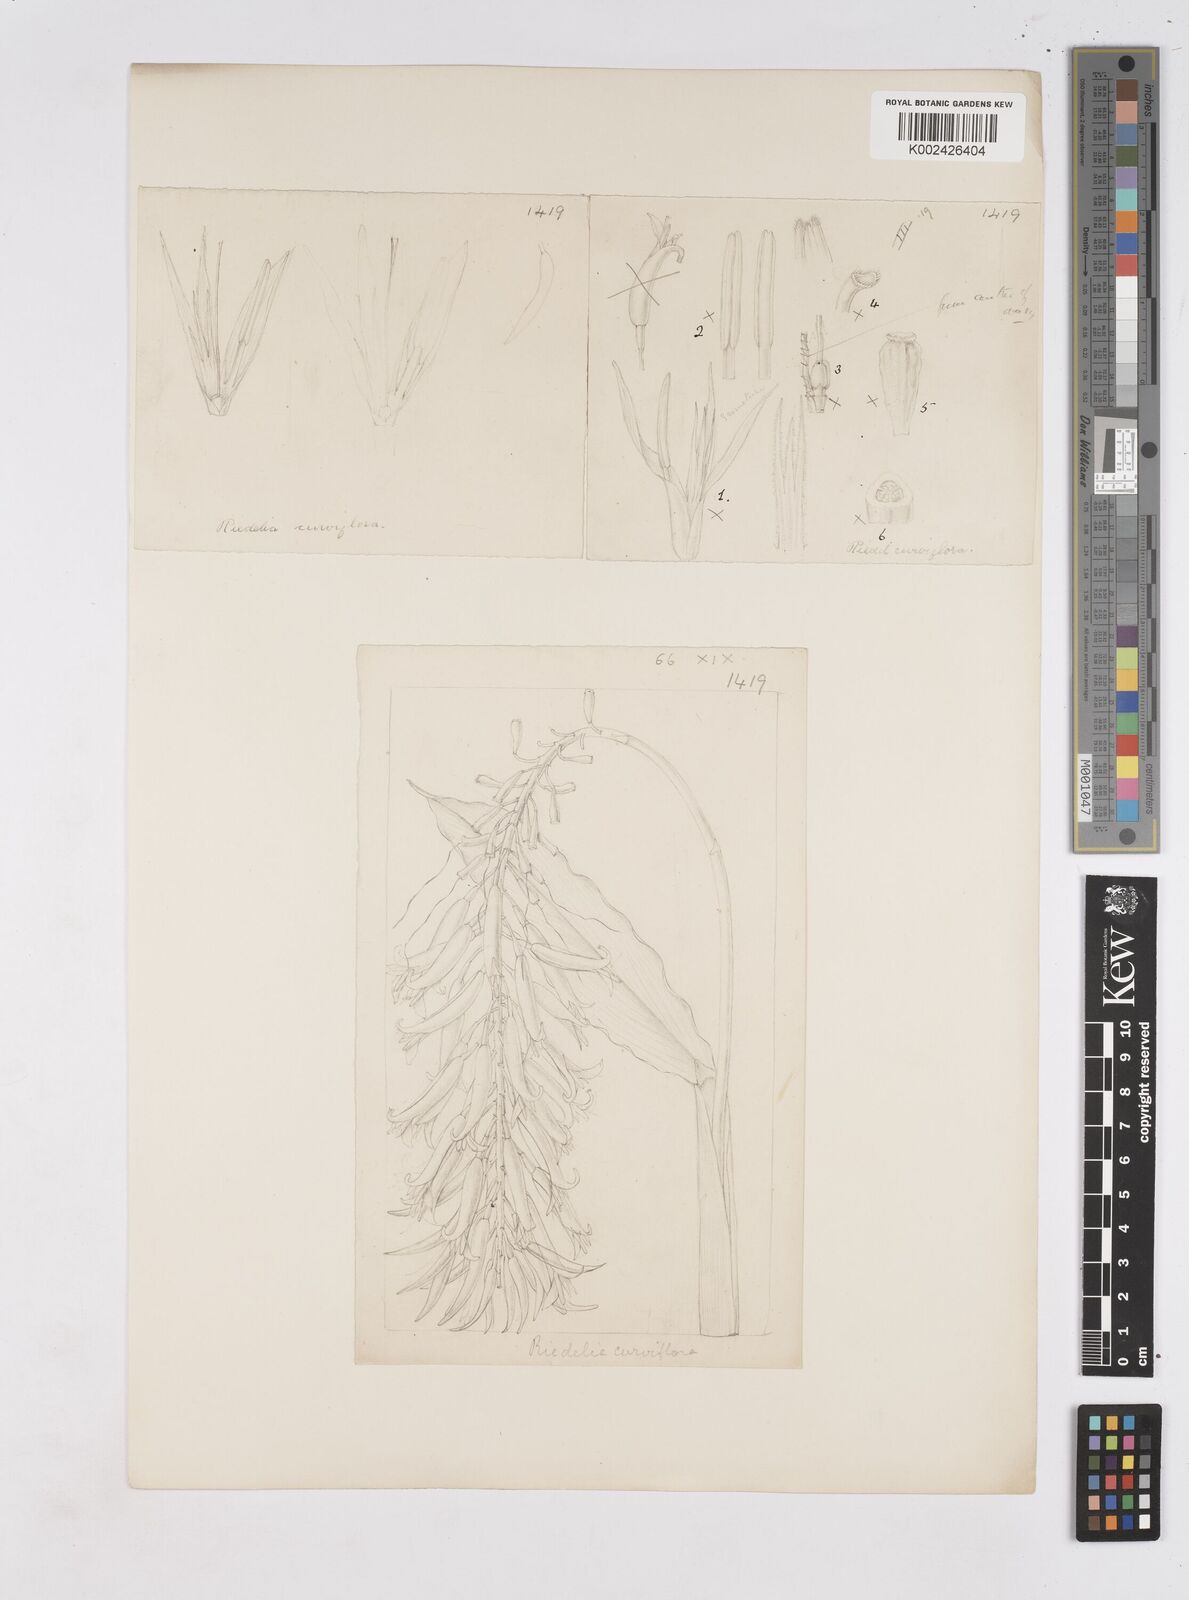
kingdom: Plantae
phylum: Tracheophyta
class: Liliopsida
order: Zingiberales
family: Zingiberaceae
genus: Riedelia
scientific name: Riedelia lanata
